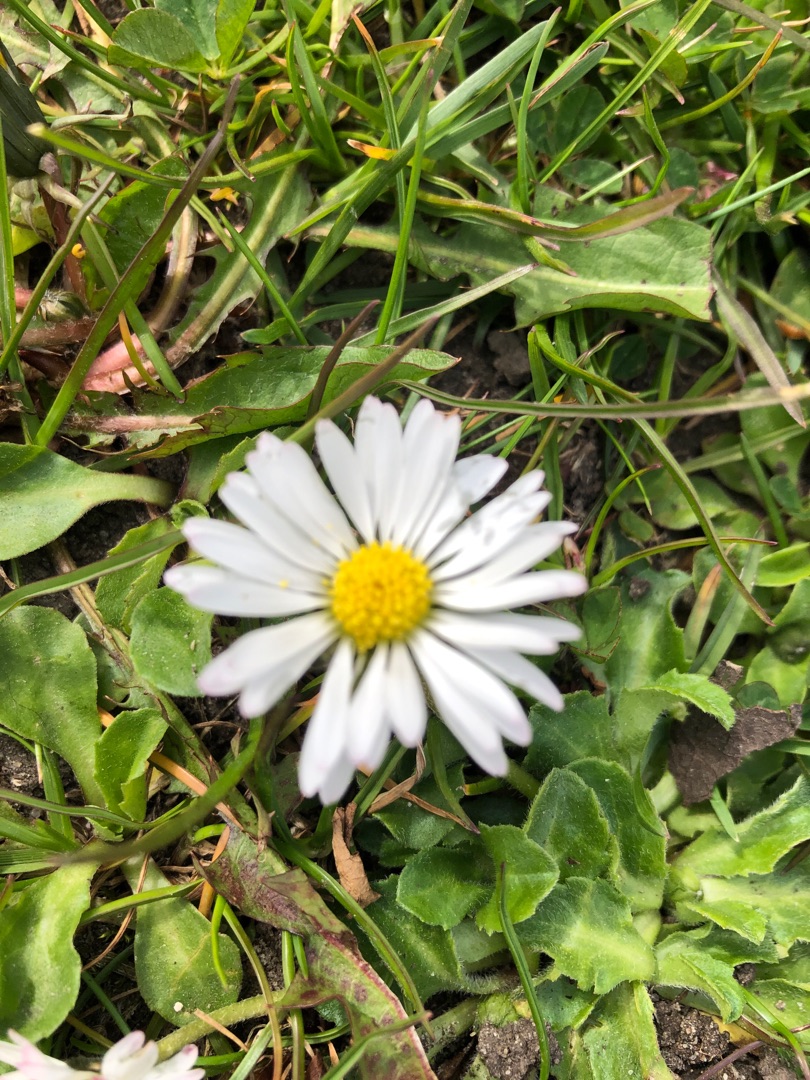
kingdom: Plantae
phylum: Tracheophyta
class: Magnoliopsida
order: Asterales
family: Asteraceae
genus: Bellis
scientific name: Bellis perennis
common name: Tusindfryd
